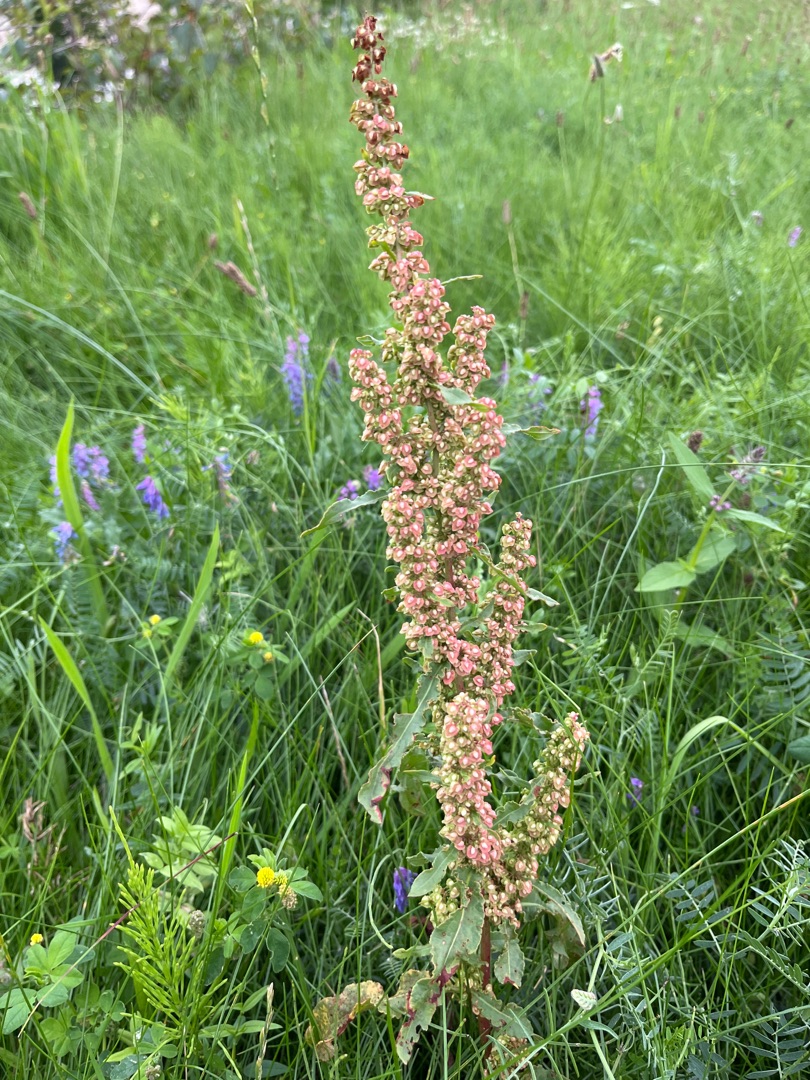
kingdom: Plantae
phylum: Tracheophyta
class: Magnoliopsida
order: Caryophyllales
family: Polygonaceae
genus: Rumex
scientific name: Rumex crispus
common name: Kruset skræppe
